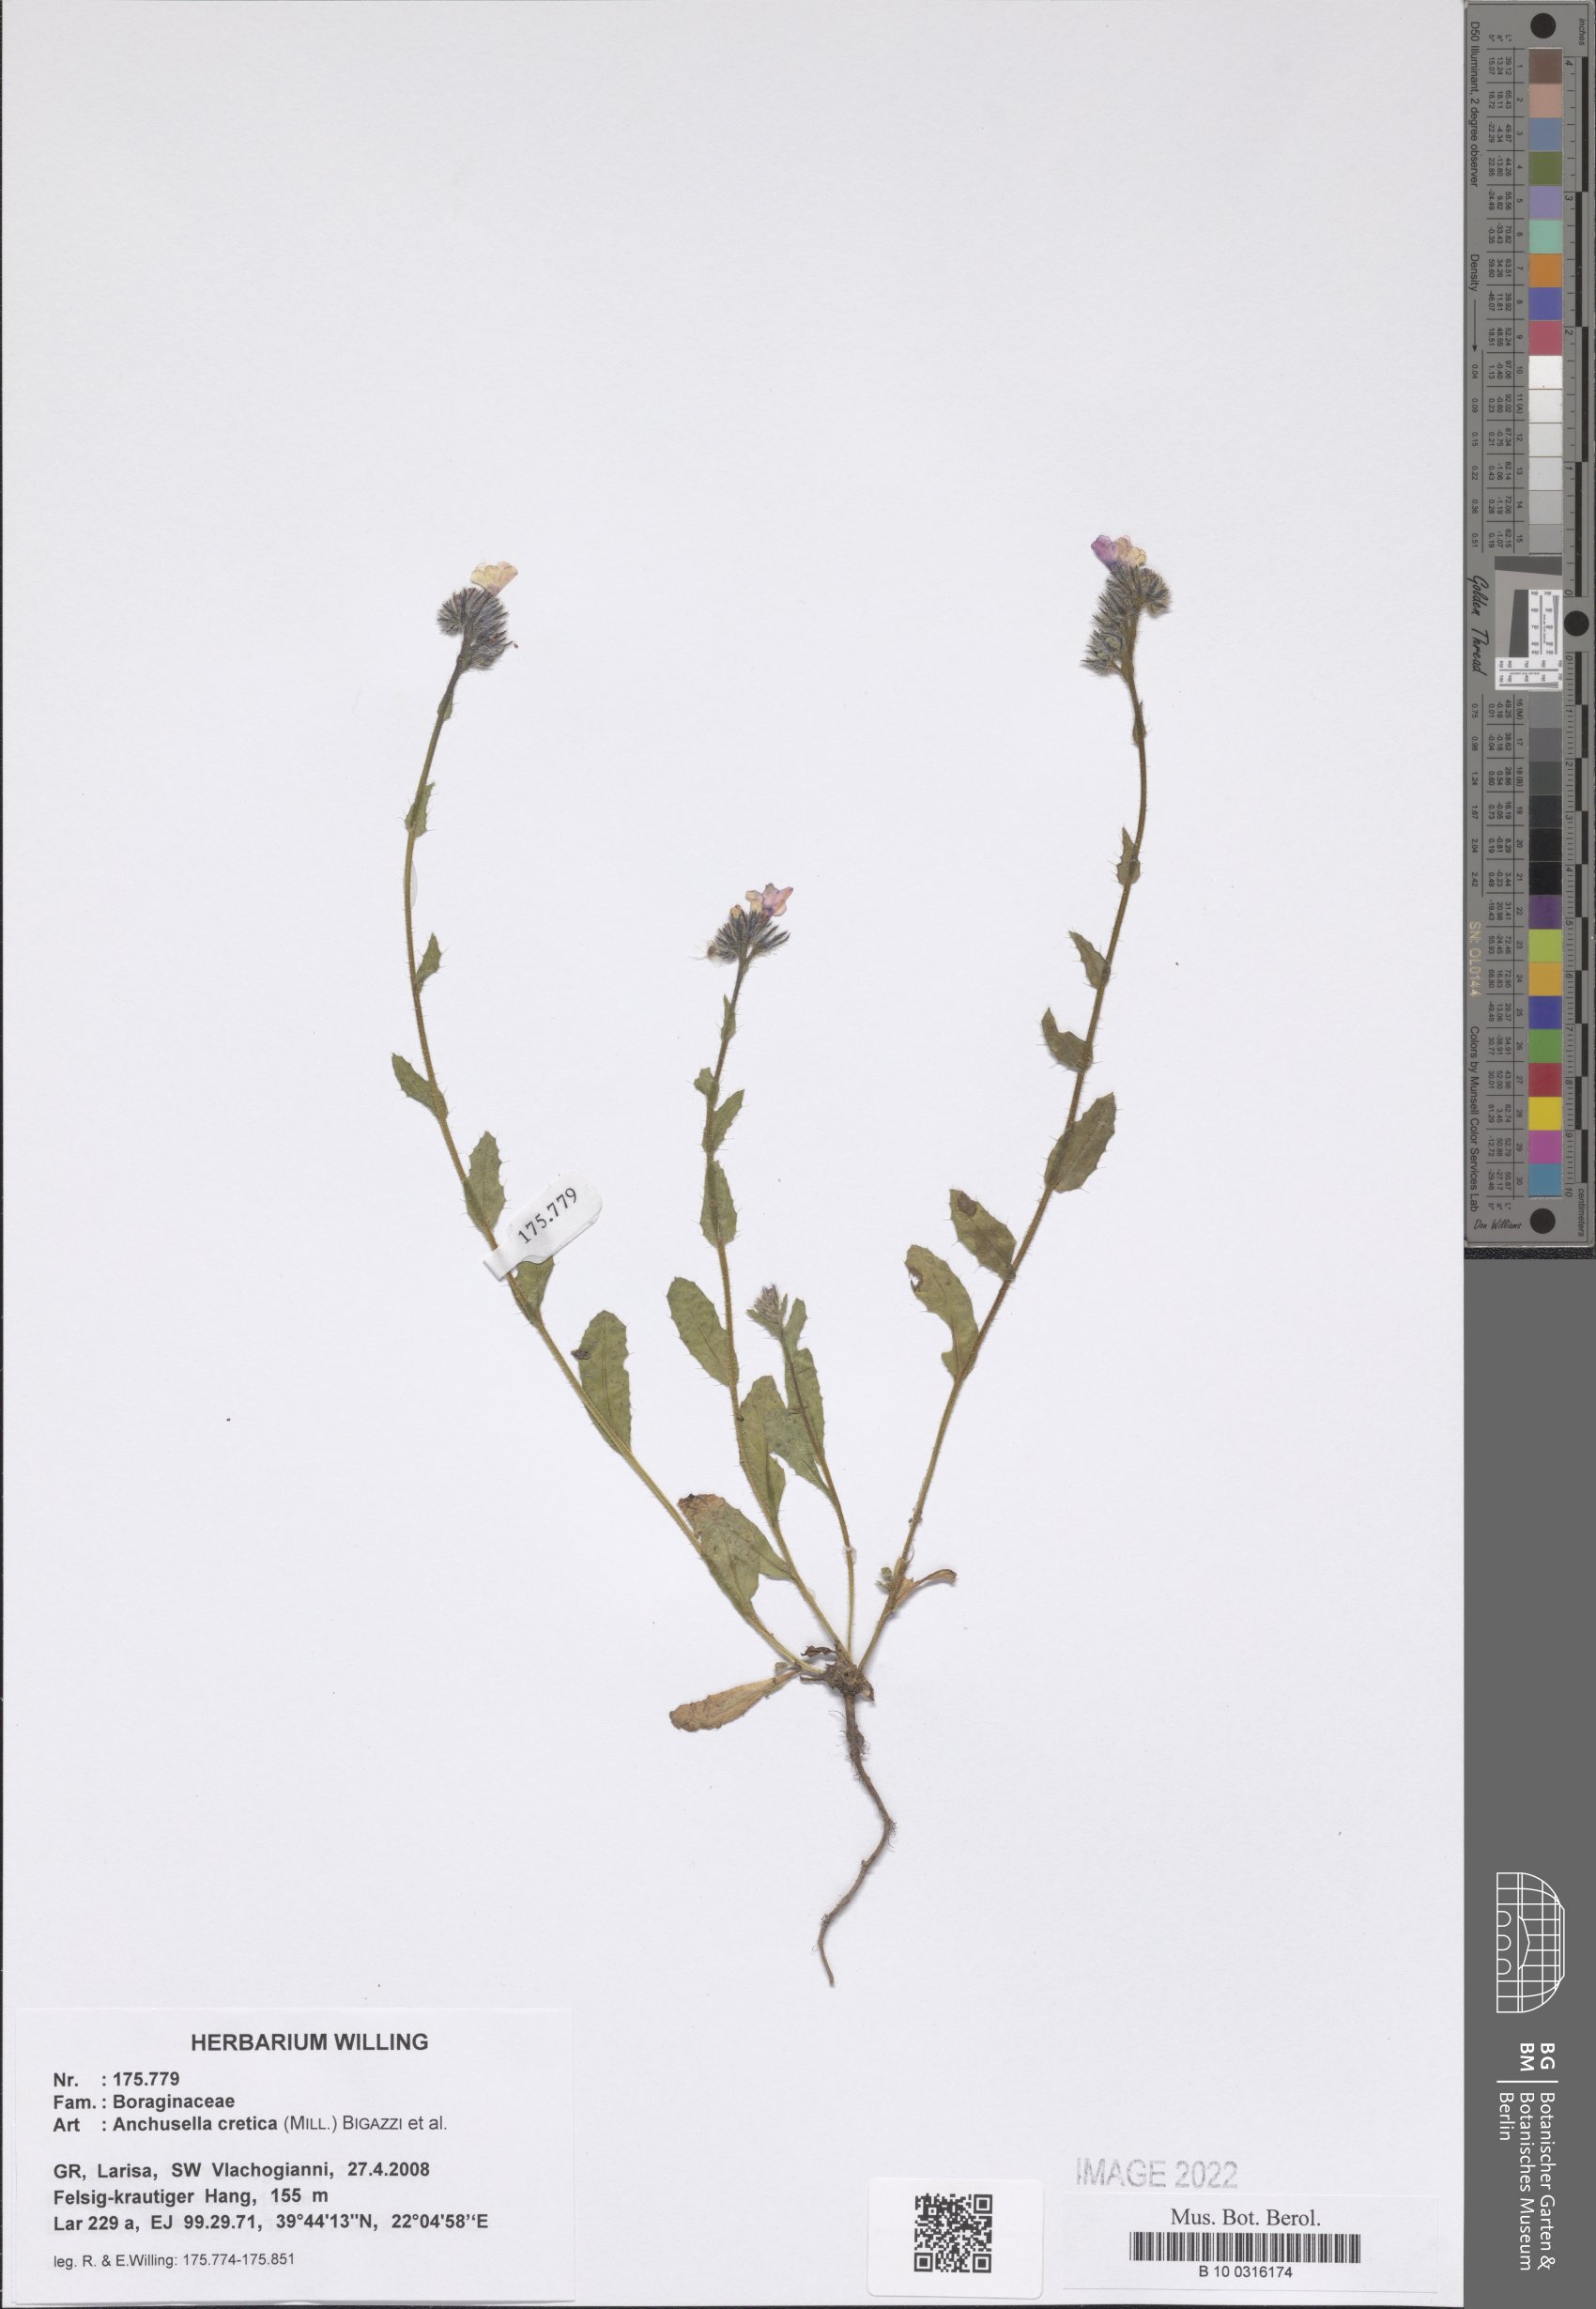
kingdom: Plantae
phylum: Tracheophyta
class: Magnoliopsida
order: Boraginales
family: Boraginaceae
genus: Anchusella
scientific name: Anchusella cretica
